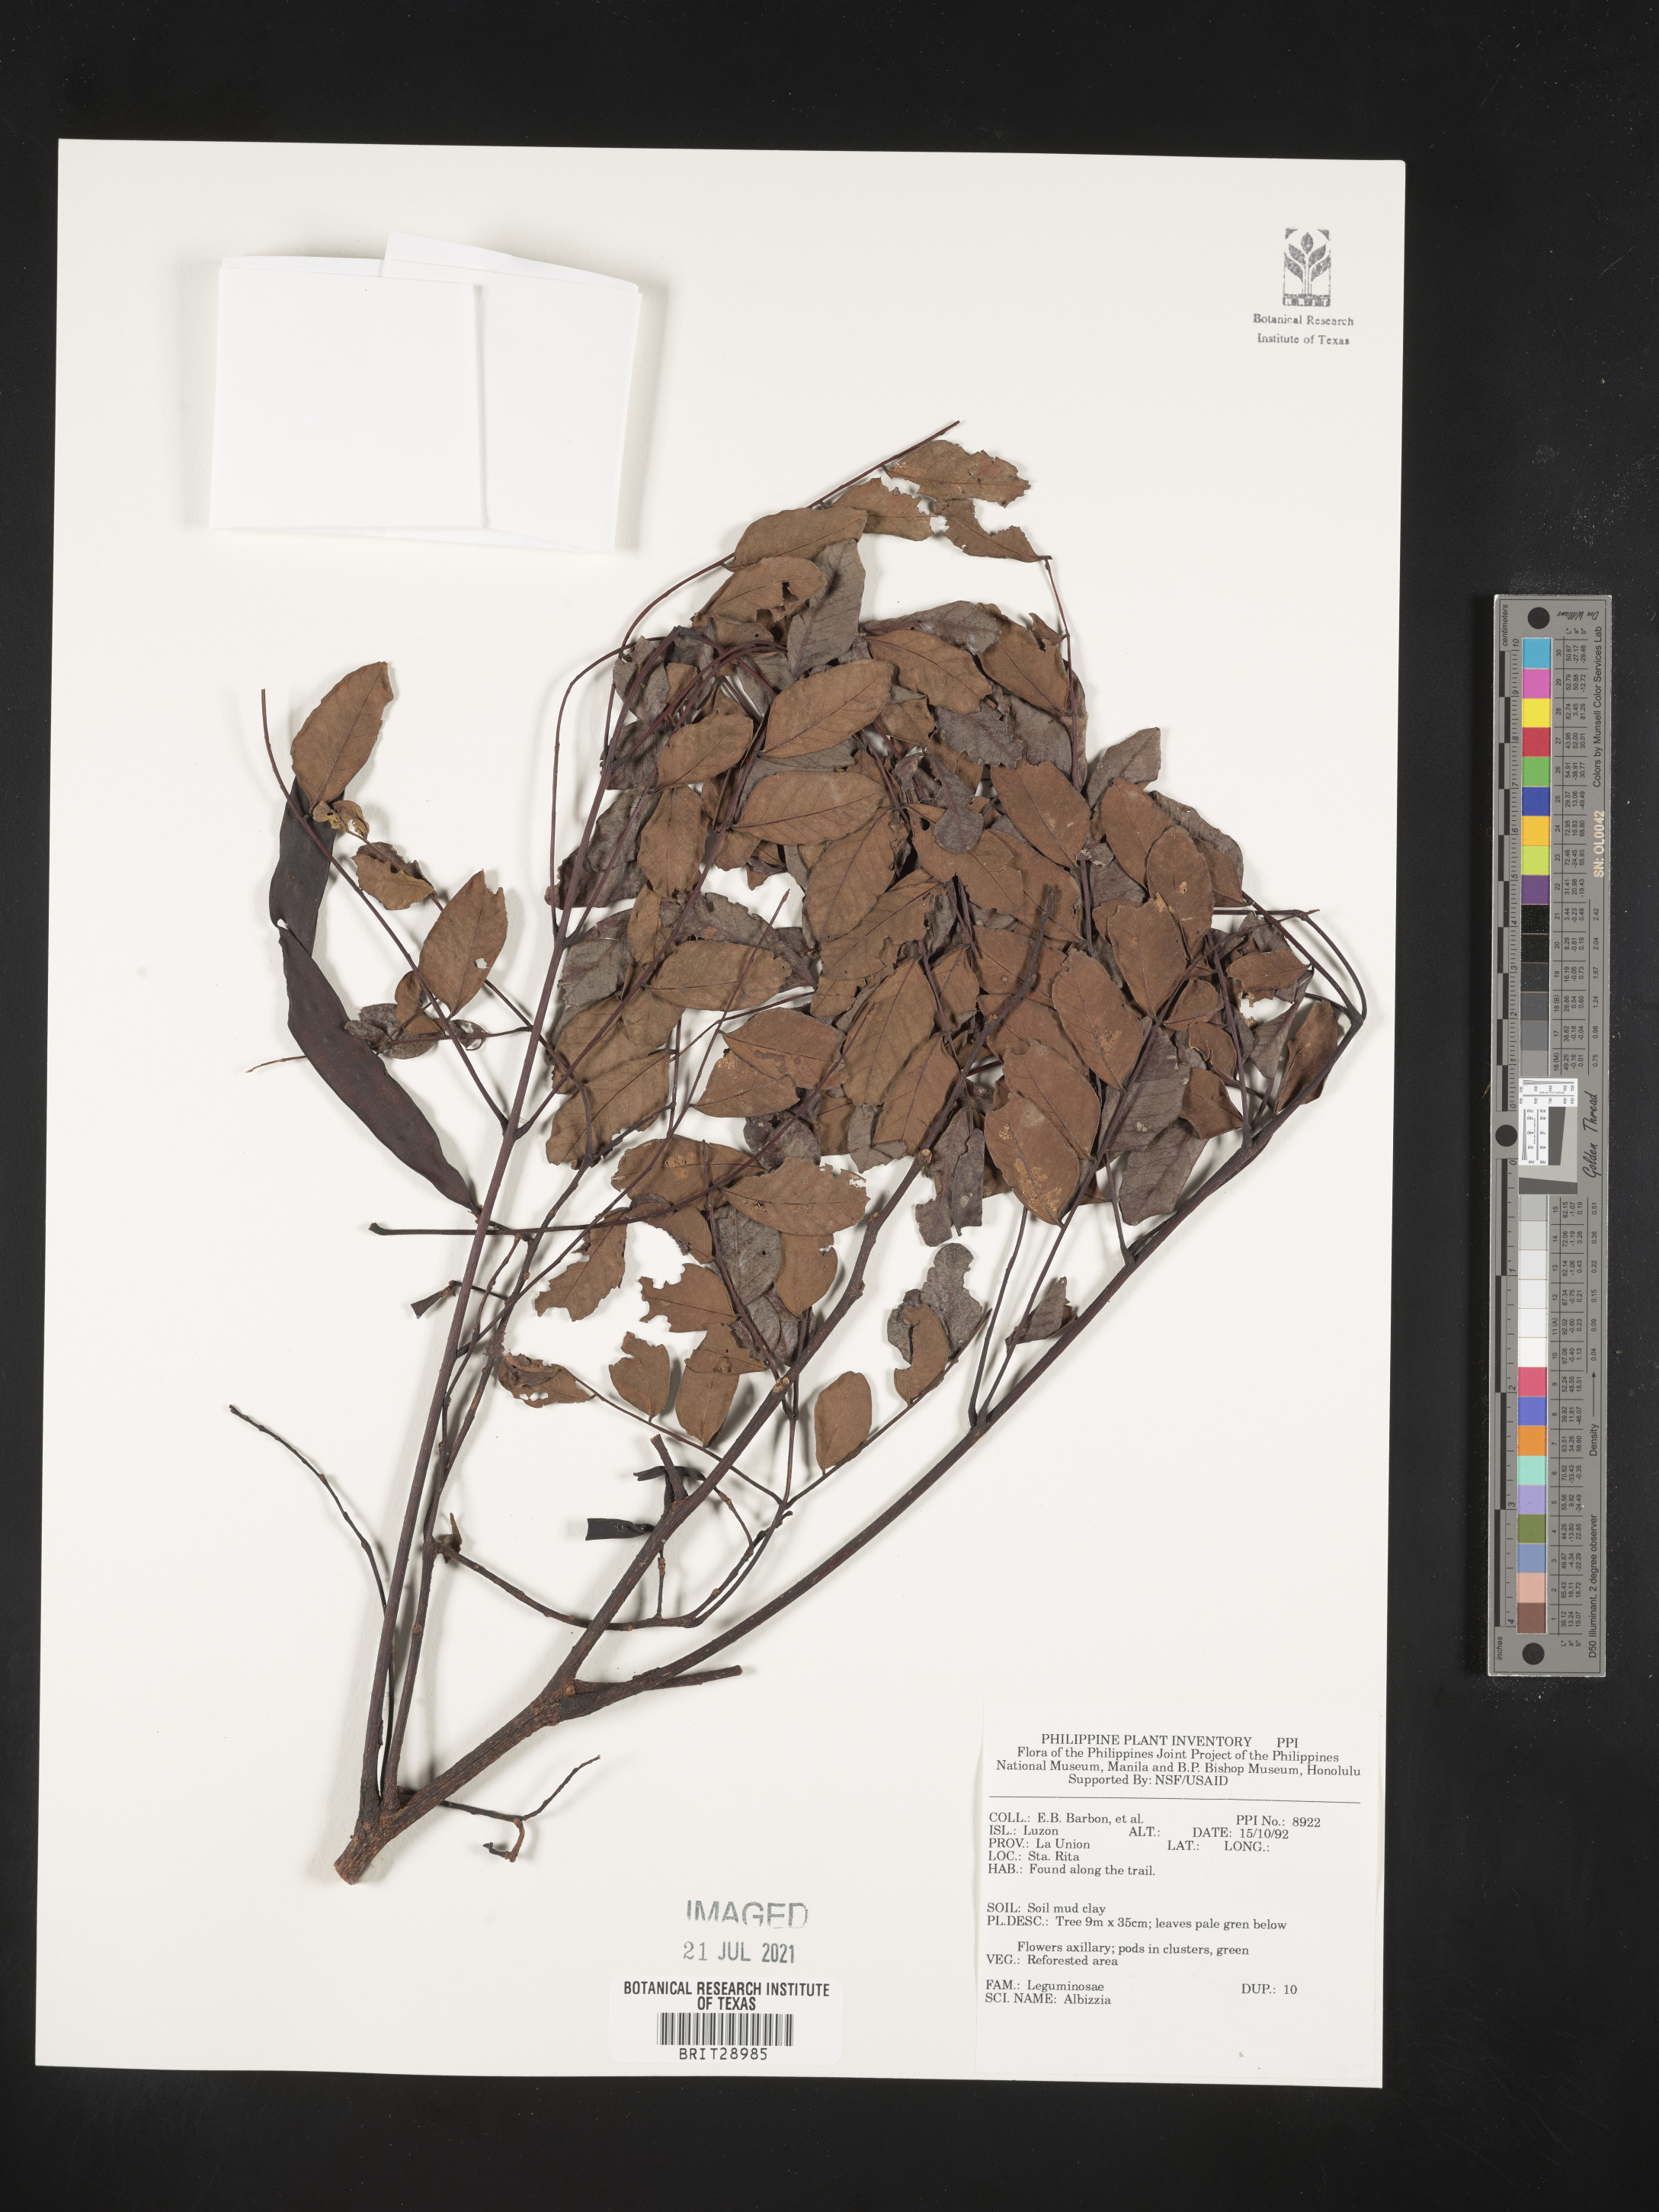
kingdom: Plantae
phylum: Tracheophyta
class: Magnoliopsida
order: Fabales
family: Fabaceae
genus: Albizia
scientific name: Albizia
